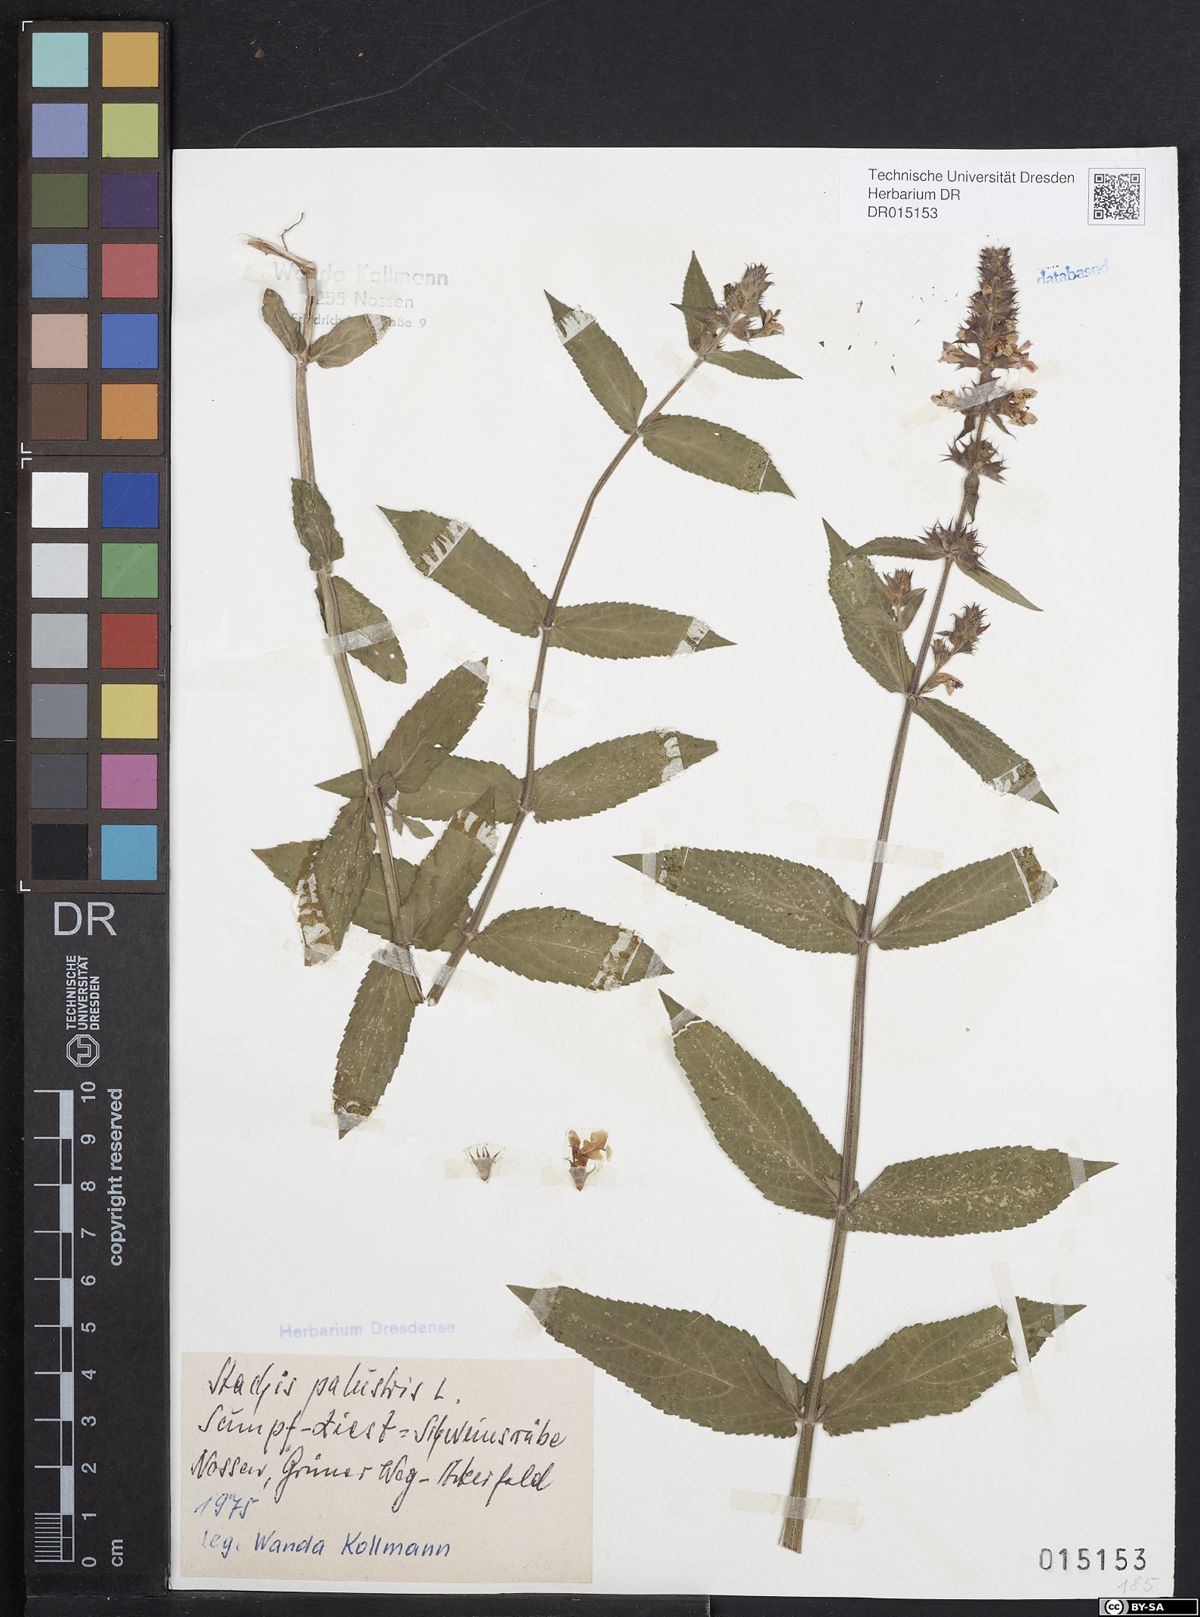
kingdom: Plantae
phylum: Tracheophyta
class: Magnoliopsida
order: Lamiales
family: Lamiaceae
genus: Stachys
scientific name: Stachys palustris
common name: Marsh woundwort
